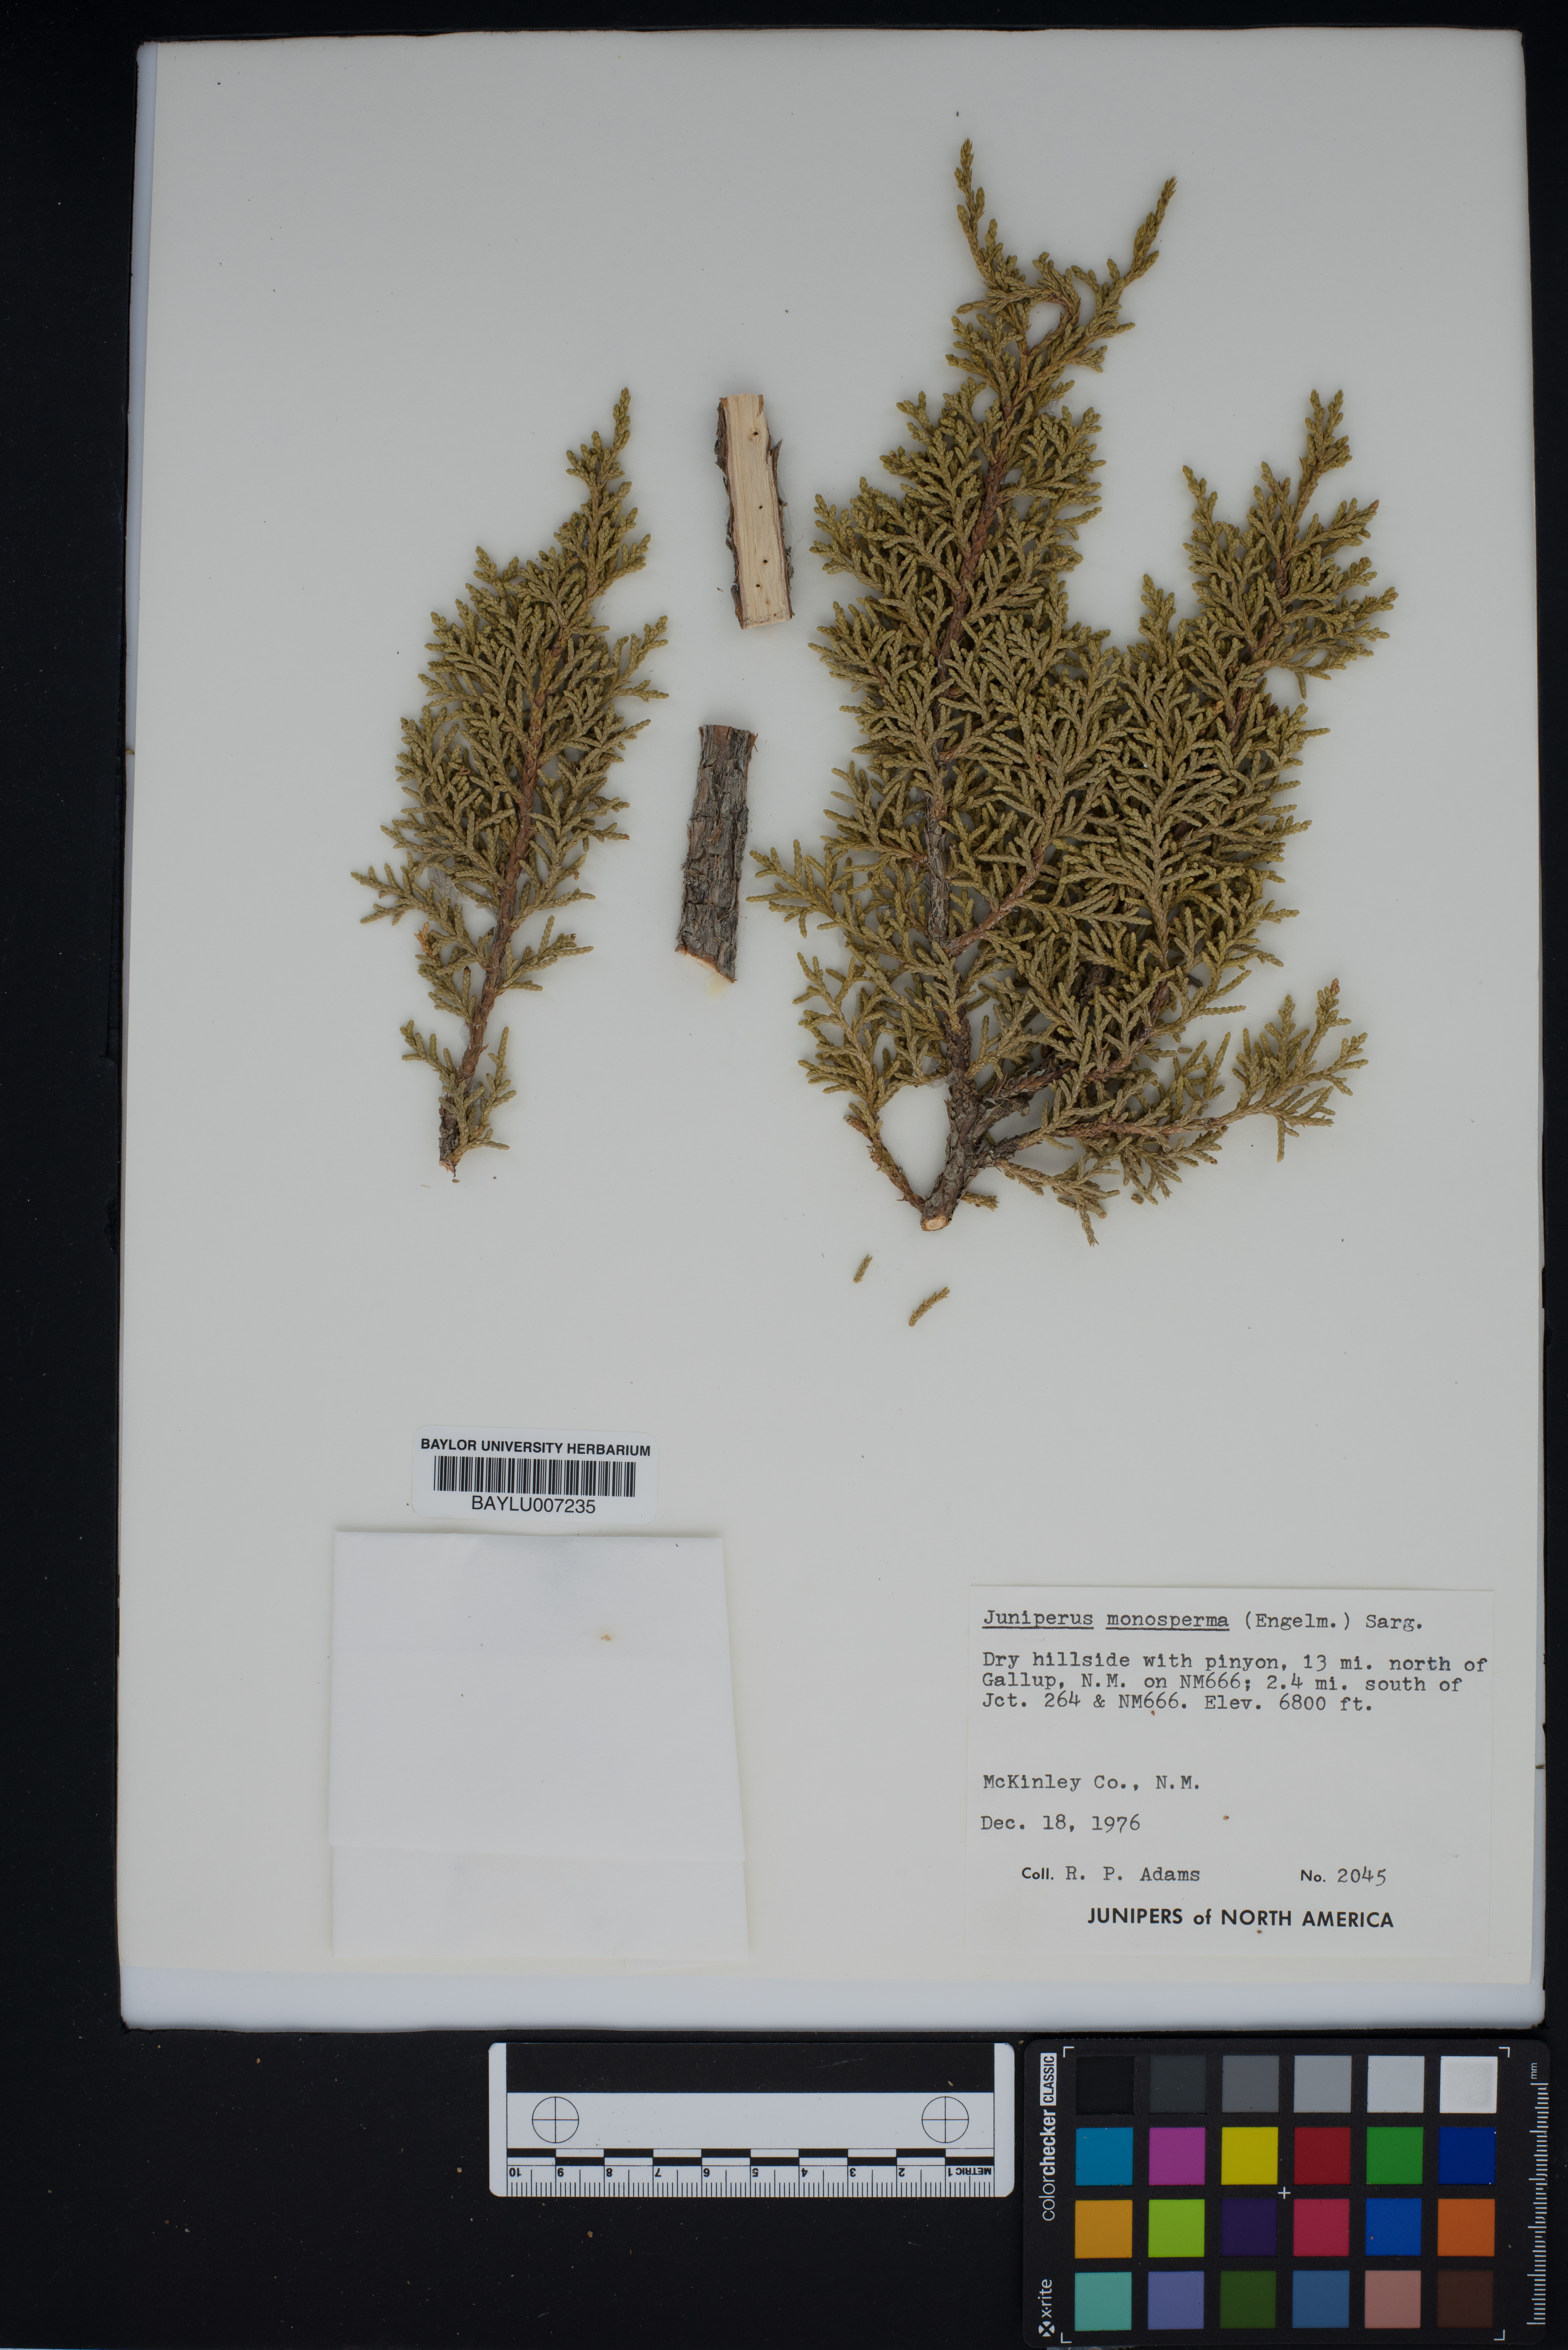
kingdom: Plantae
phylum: Tracheophyta
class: Pinopsida
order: Pinales
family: Cupressaceae
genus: Juniperus
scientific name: Juniperus monosperma
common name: One-seed juniper
